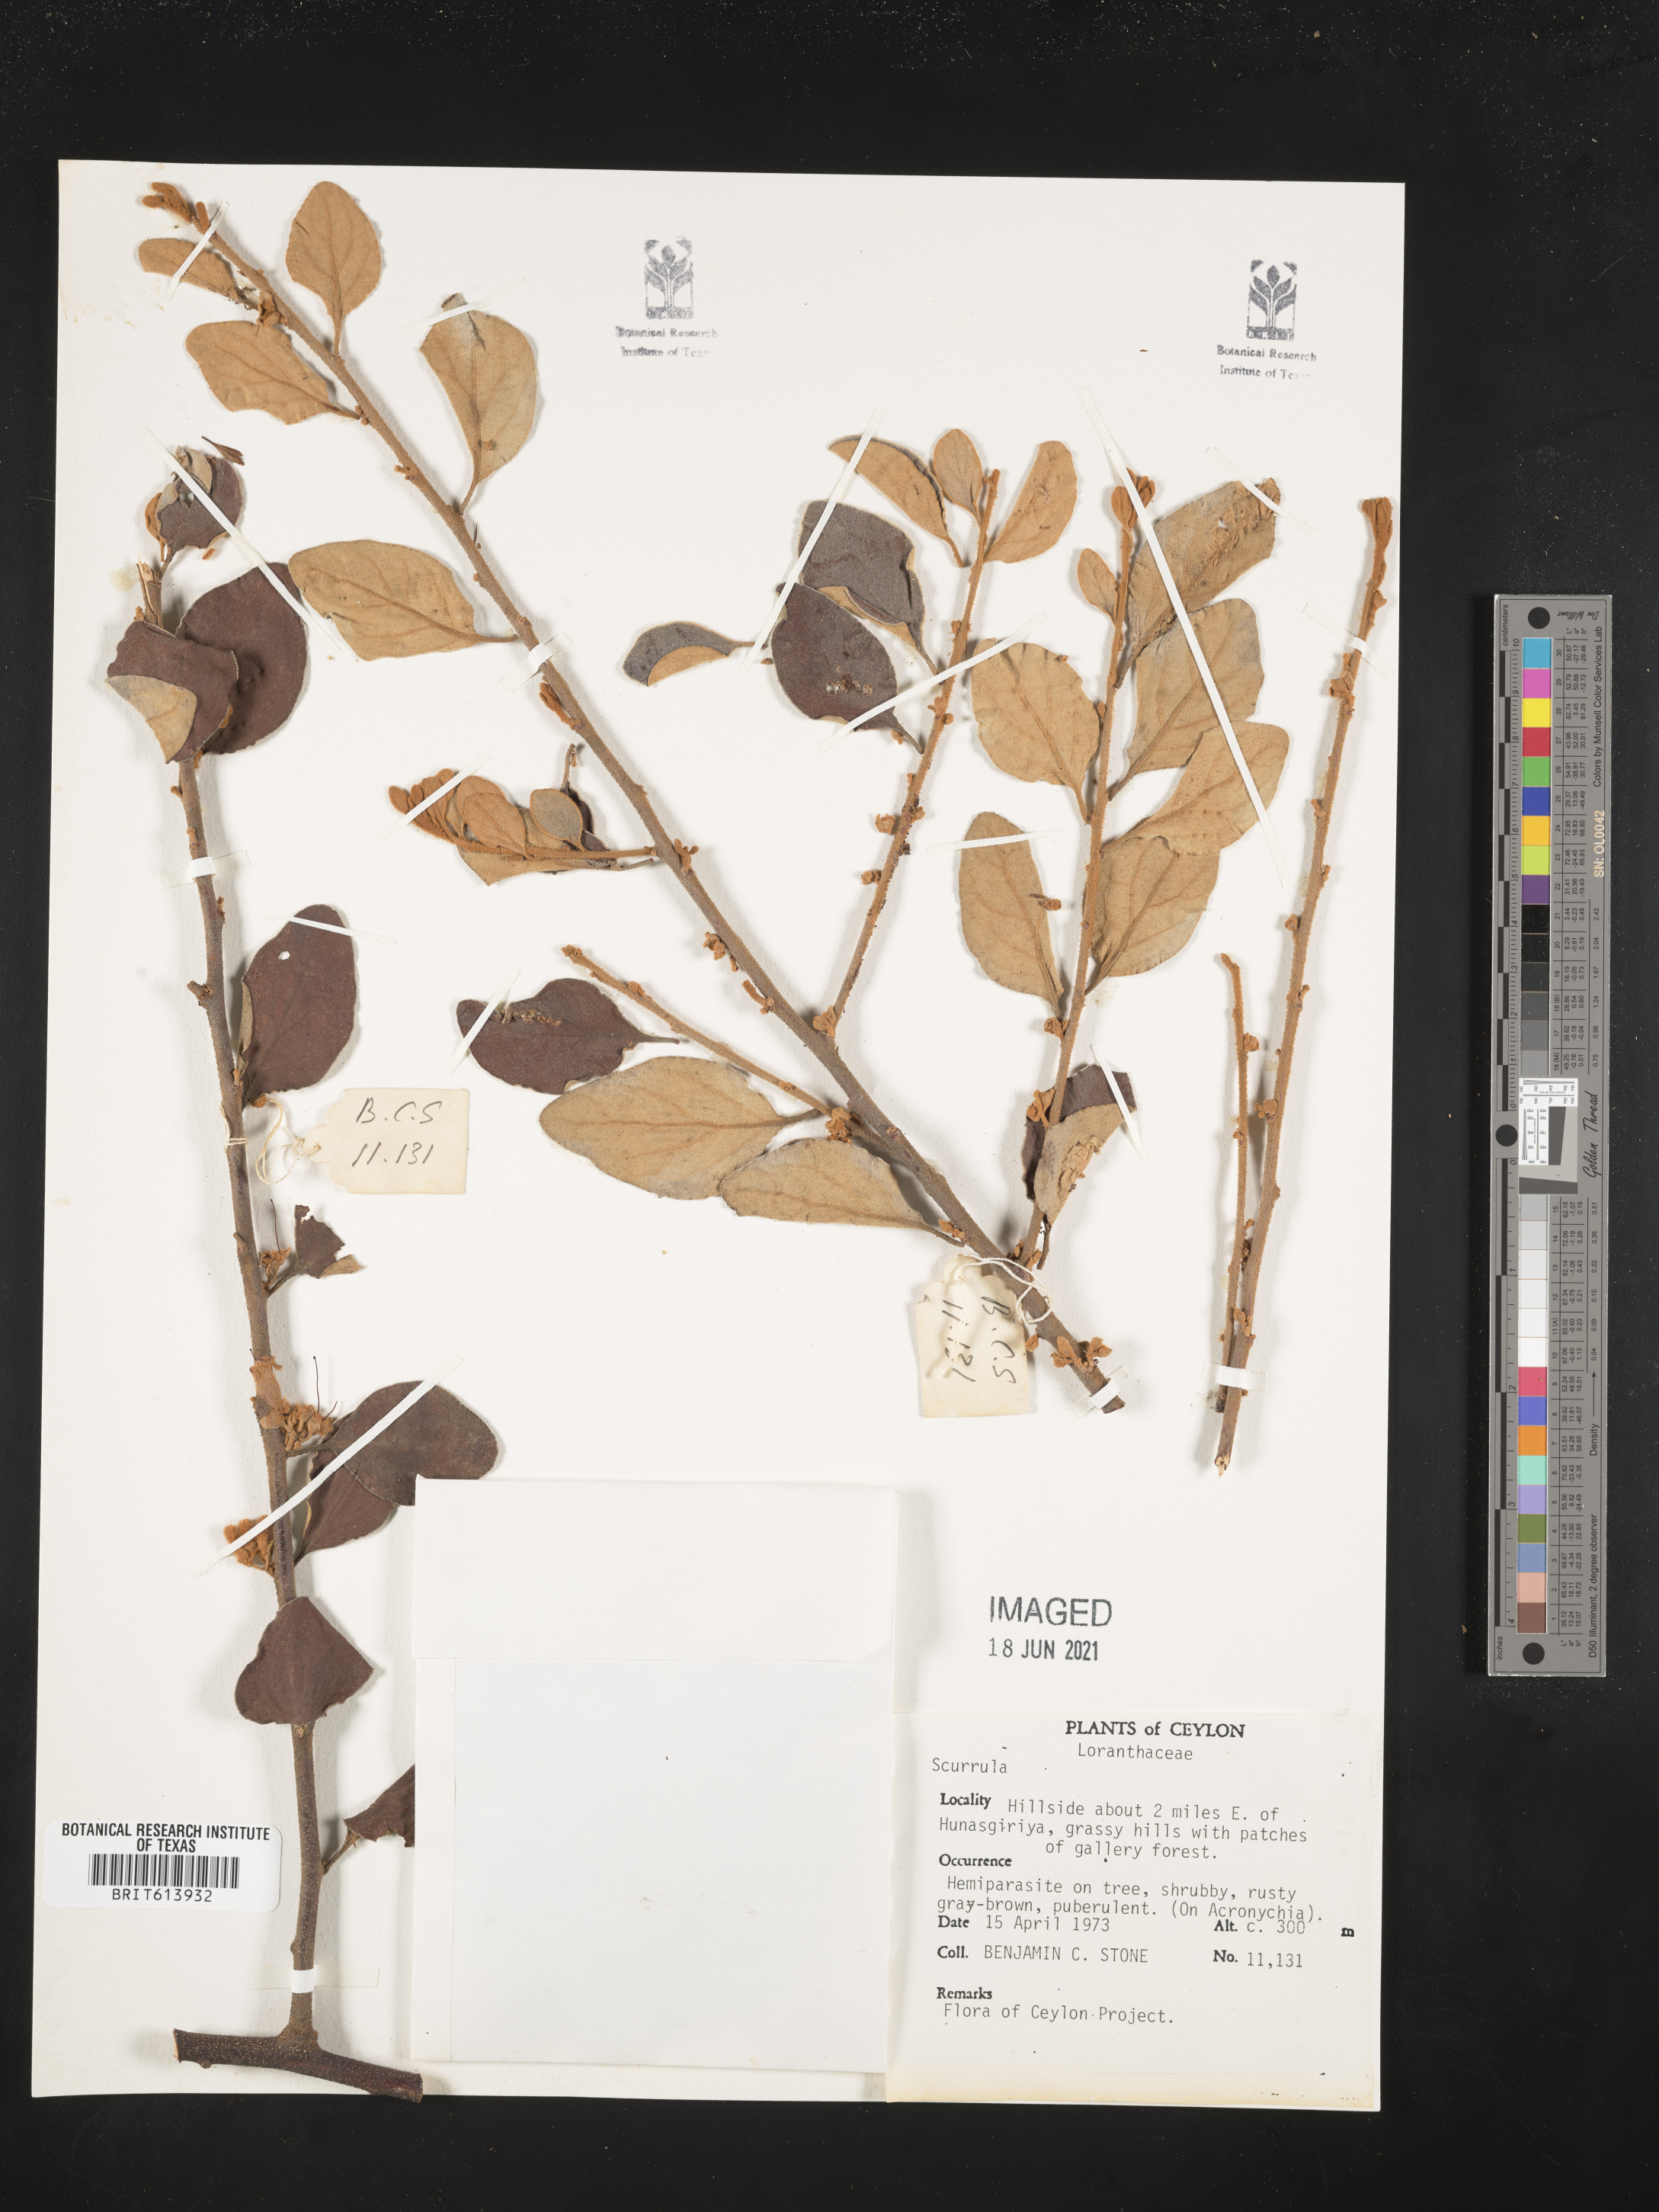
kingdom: Plantae
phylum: Tracheophyta
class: Magnoliopsida
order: Santalales
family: Loranthaceae
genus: Scurrula
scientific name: Scurrula
